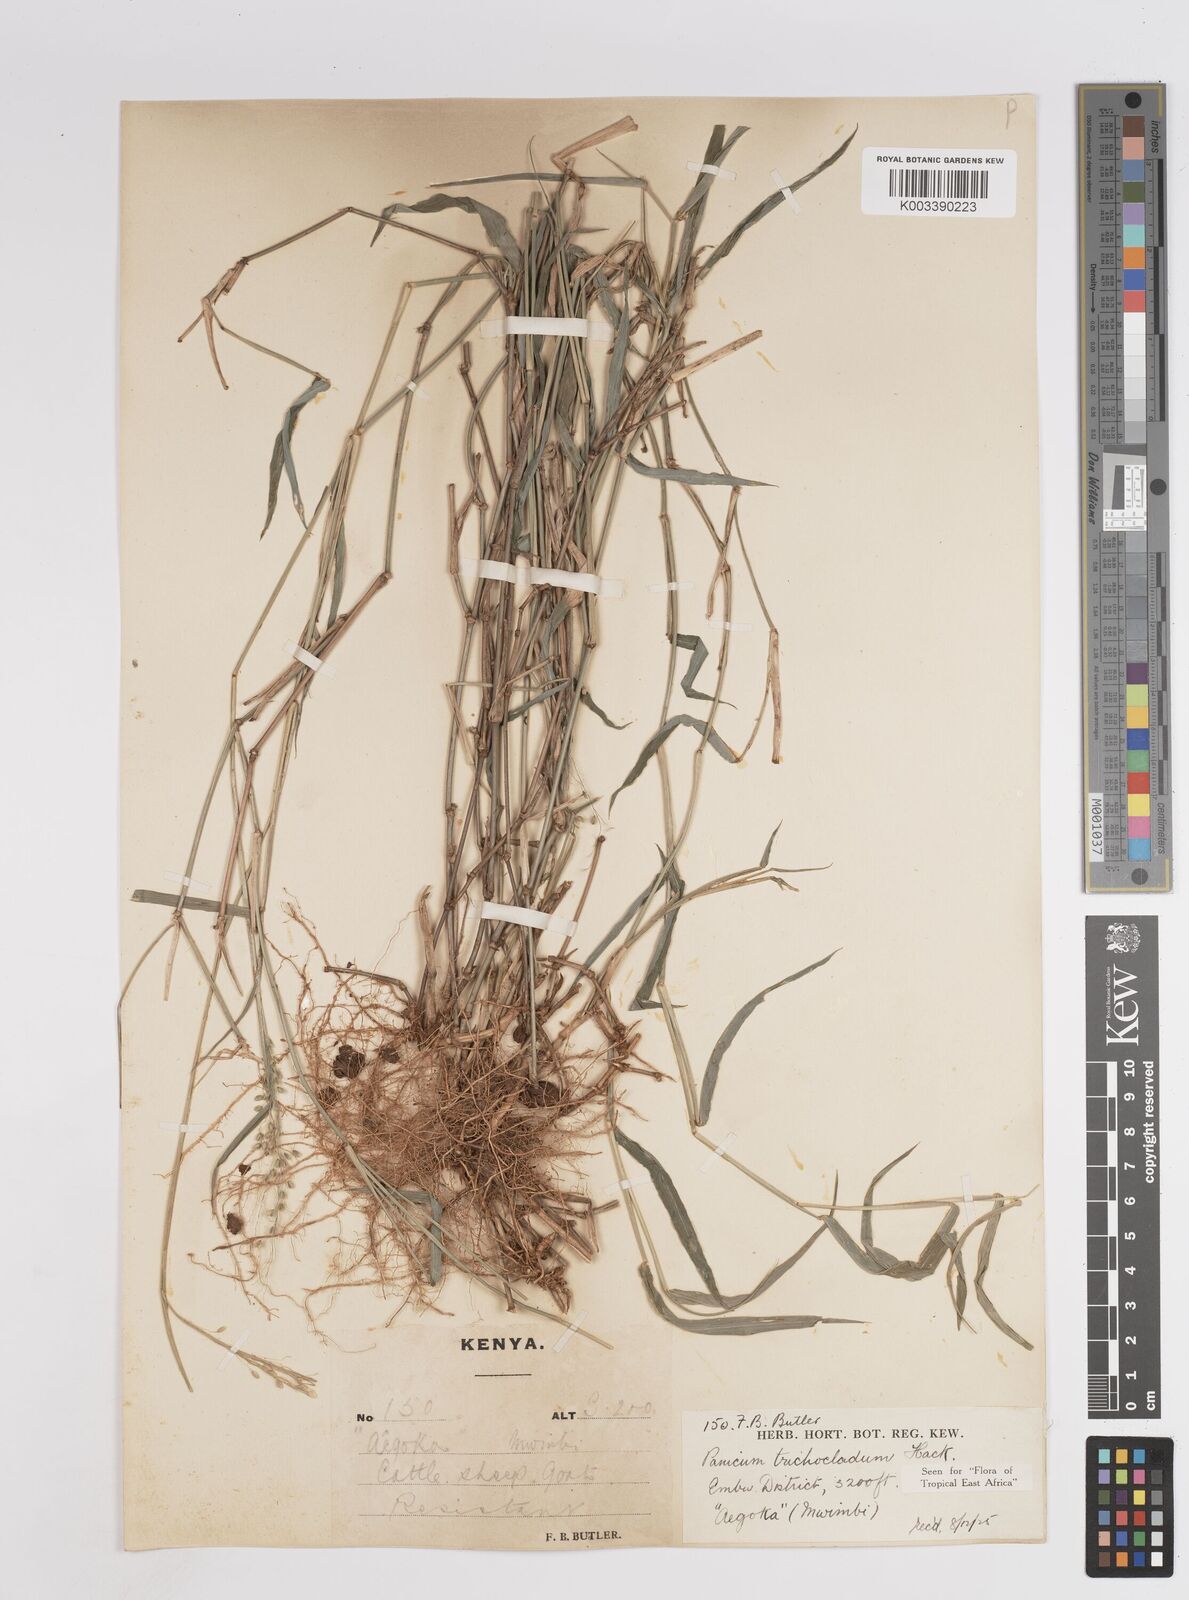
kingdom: Plantae
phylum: Tracheophyta
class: Liliopsida
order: Poales
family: Poaceae
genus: Panicum
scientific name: Panicum trichocladum
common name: Donkey grass
